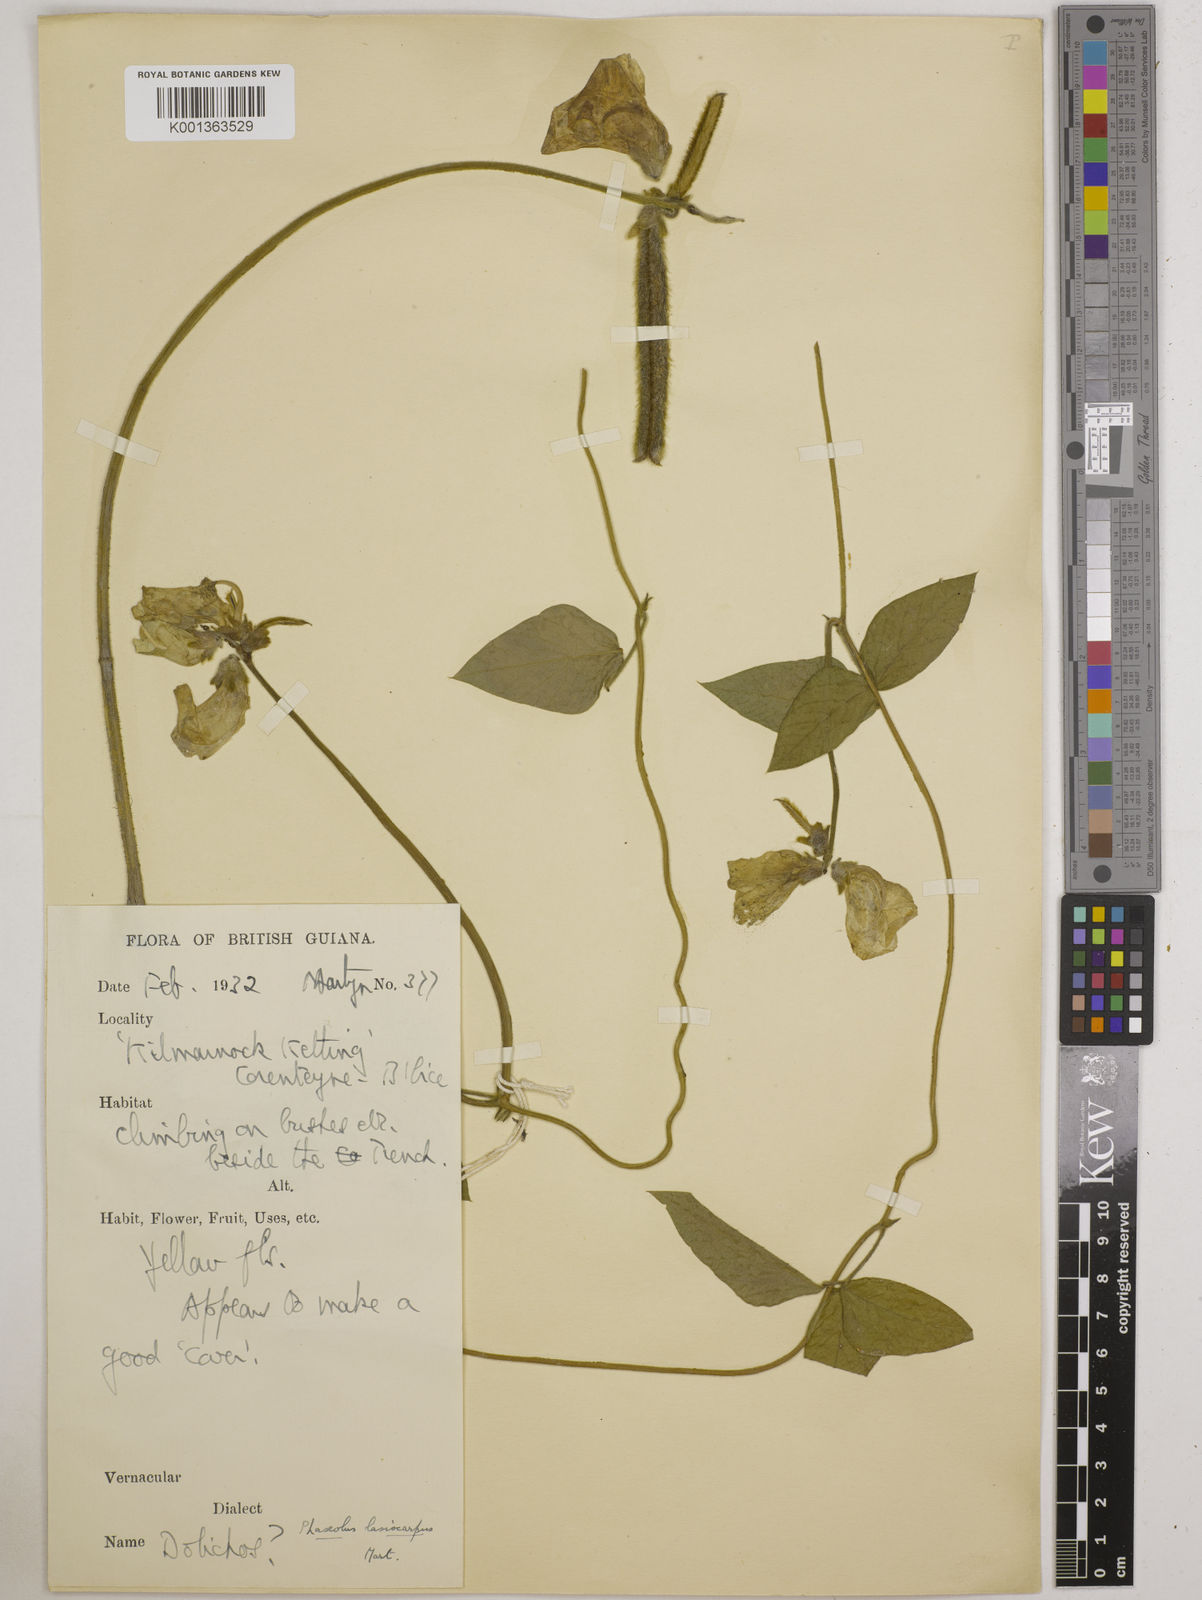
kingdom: Plantae
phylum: Tracheophyta
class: Magnoliopsida
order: Fabales
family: Fabaceae
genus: Vigna
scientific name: Vigna lasiocarpa
